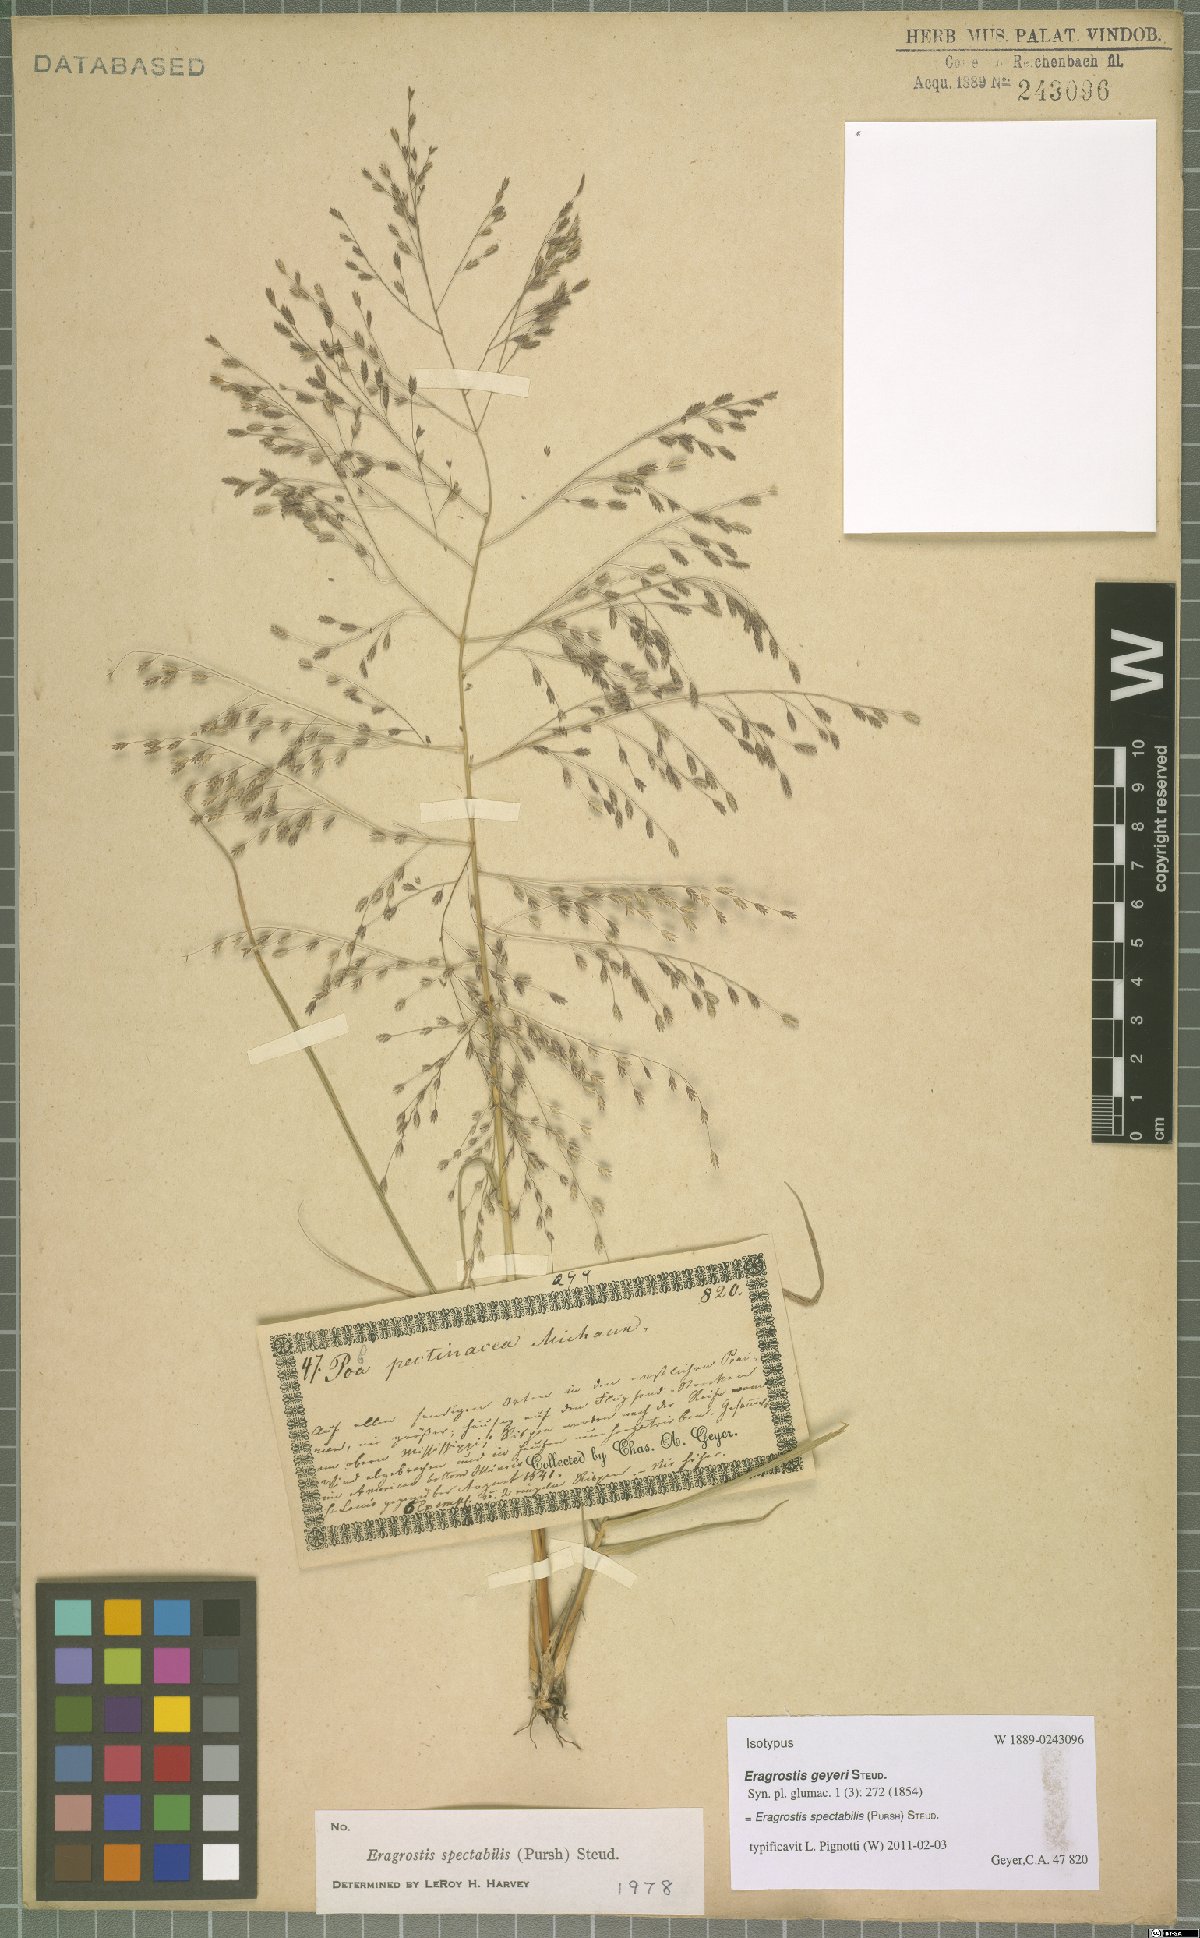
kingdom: Plantae
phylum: Tracheophyta
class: Liliopsida
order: Poales
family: Poaceae
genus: Eragrostis
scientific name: Eragrostis spectabilis
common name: Petticoat-climber
